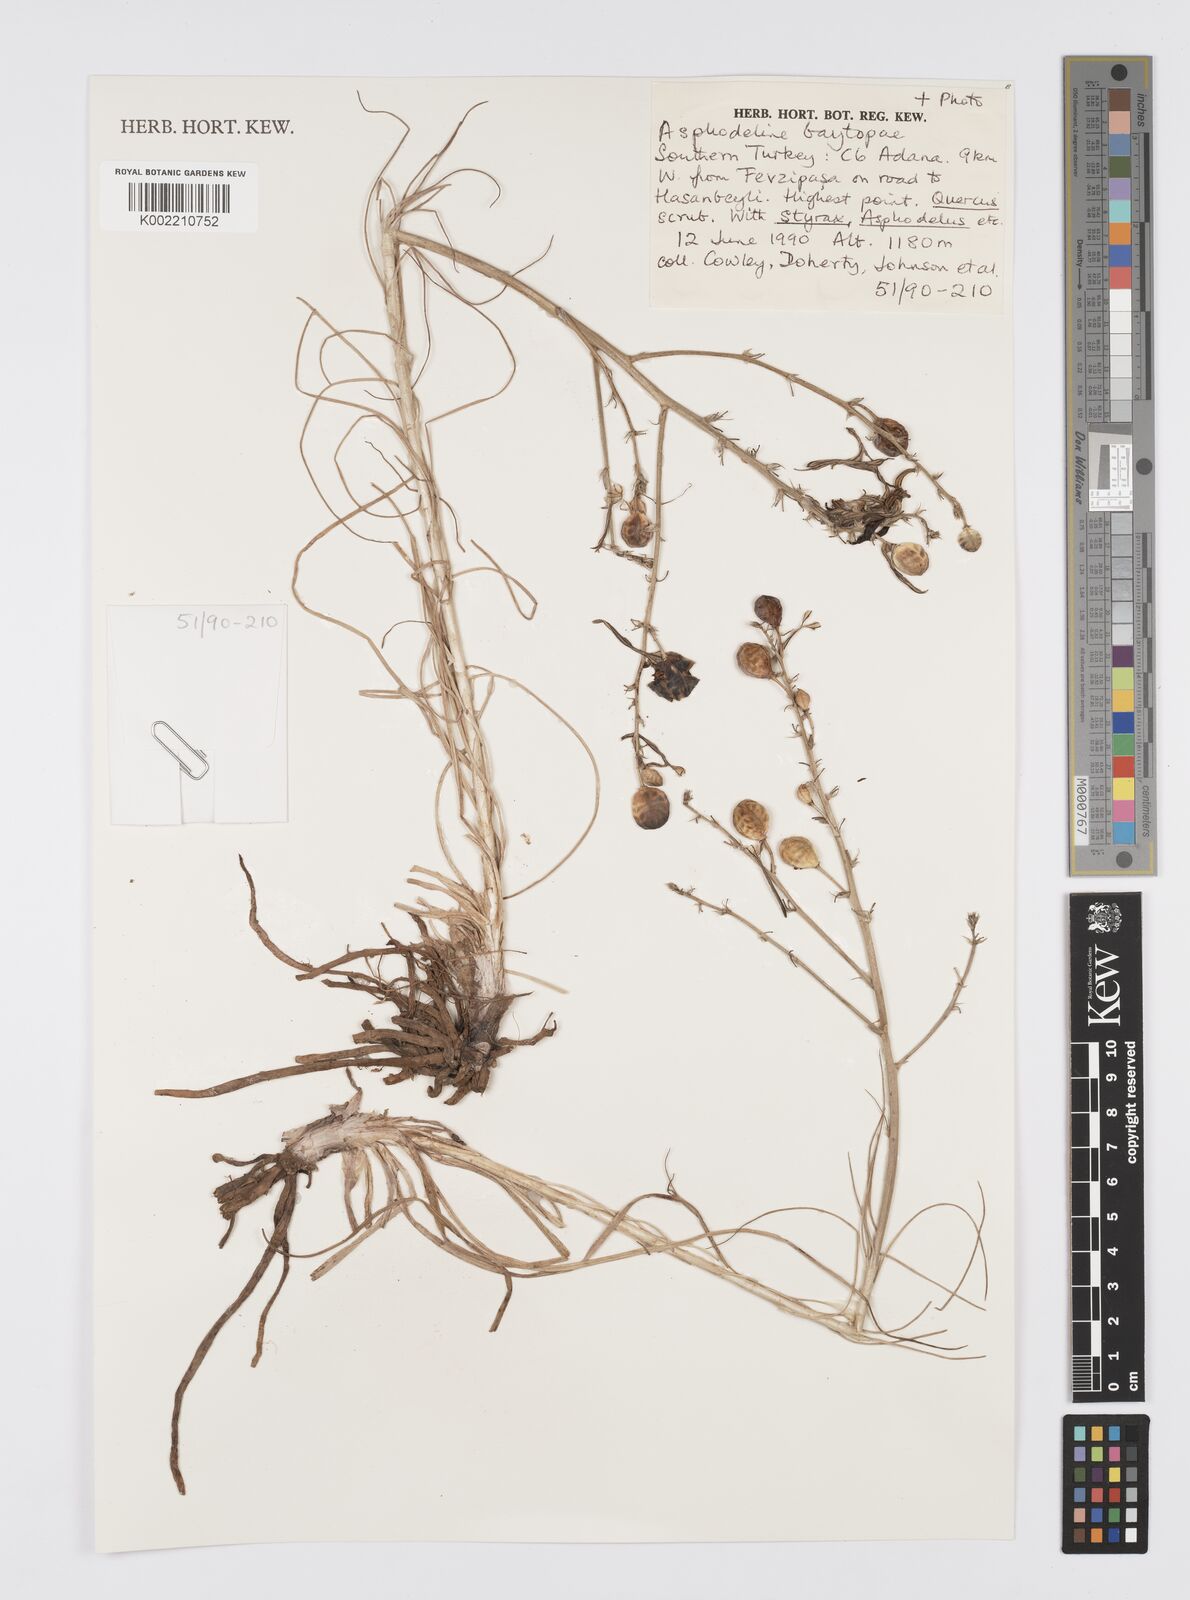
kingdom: Plantae
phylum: Tracheophyta
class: Liliopsida
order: Asparagales
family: Asphodelaceae
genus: Asphodeline
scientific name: Asphodeline baytopiae
